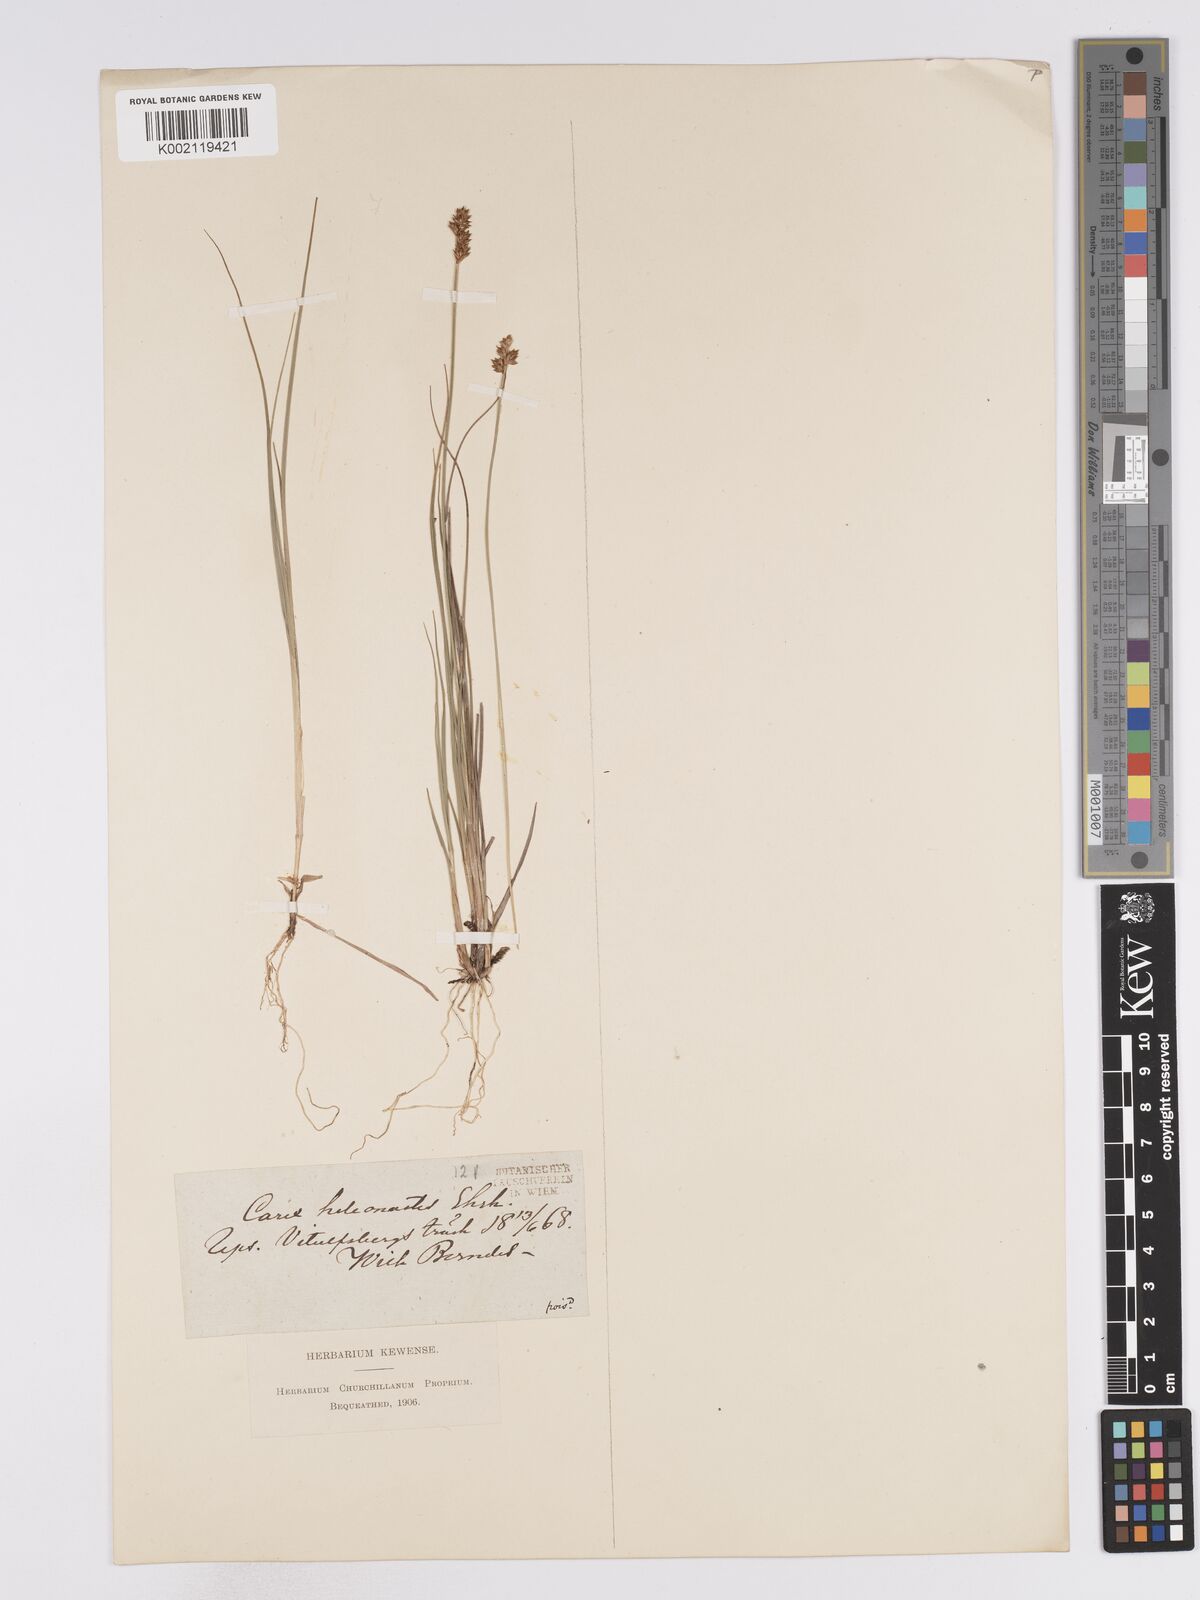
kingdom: Plantae
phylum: Tracheophyta
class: Liliopsida
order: Poales
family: Cyperaceae
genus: Carex
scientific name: Carex heleonastes
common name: Hudson bay sedge
